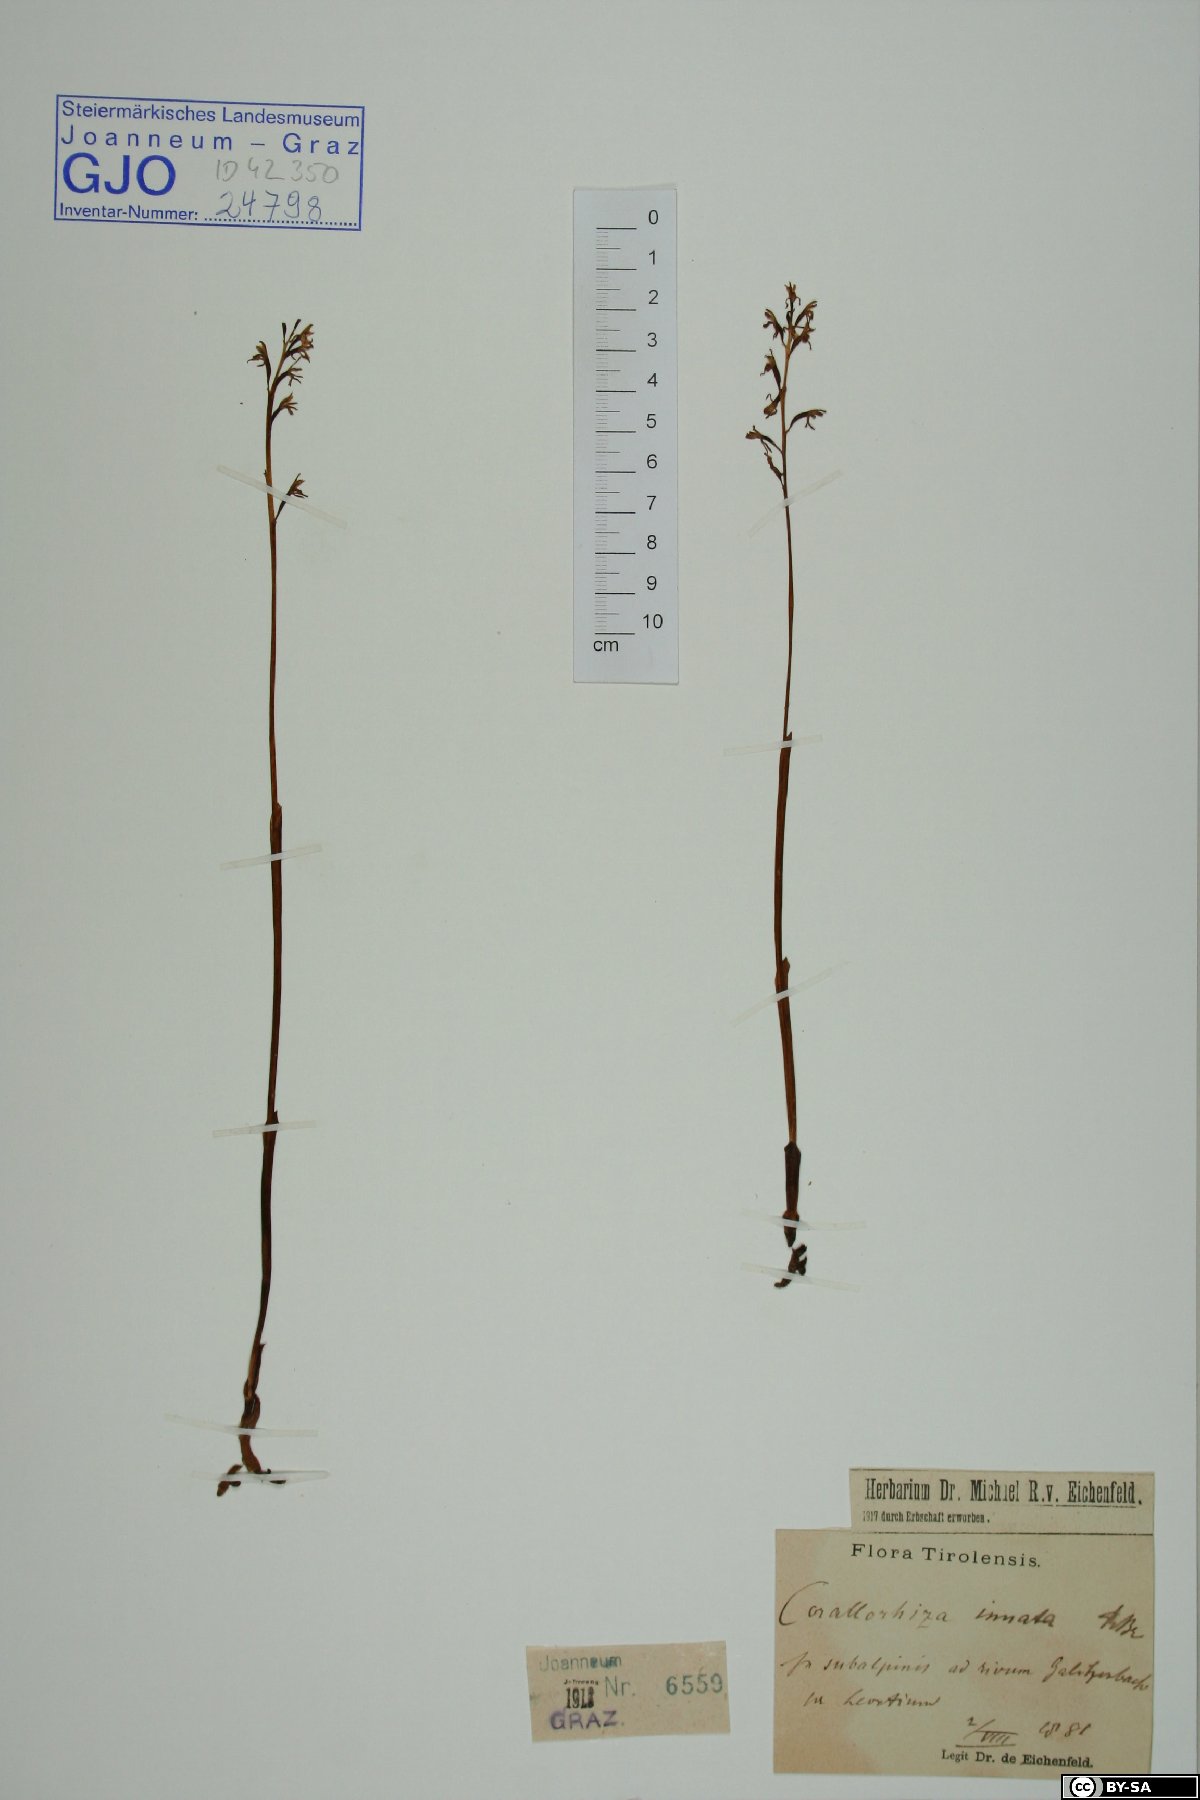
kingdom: Plantae
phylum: Tracheophyta
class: Liliopsida
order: Asparagales
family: Orchidaceae
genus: Corallorhiza
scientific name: Corallorhiza trifida
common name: Yellow coralroot
